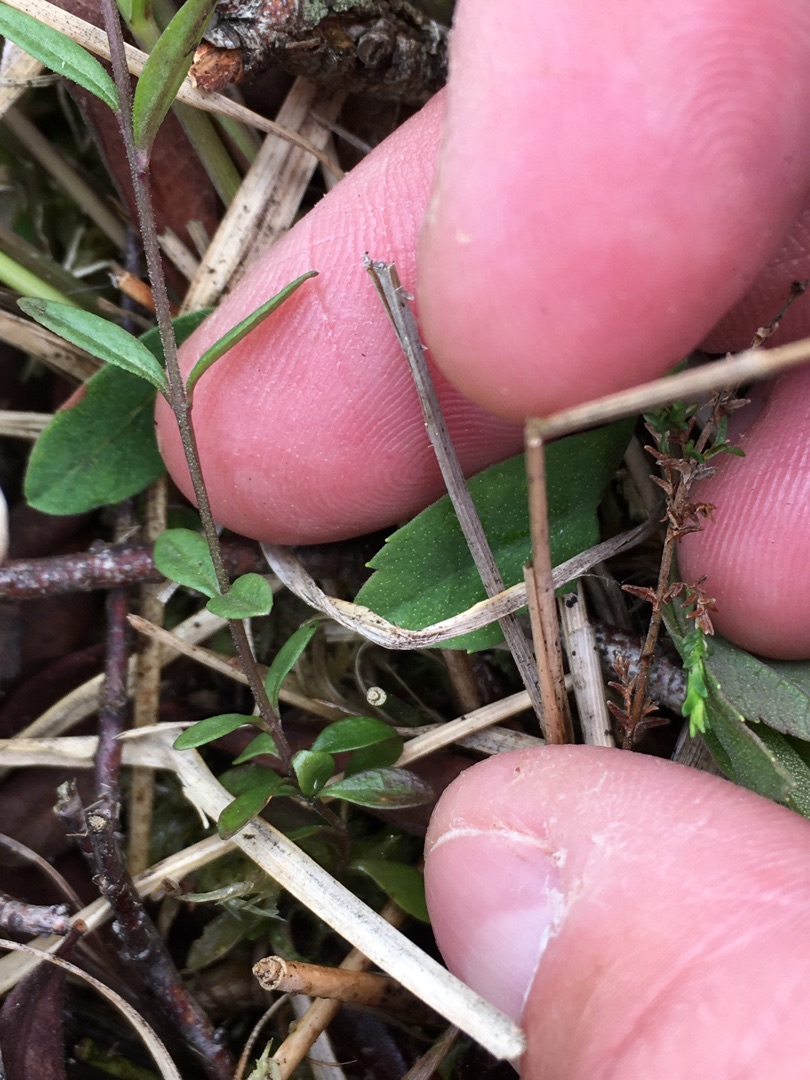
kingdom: Plantae
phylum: Tracheophyta
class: Magnoliopsida
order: Fabales
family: Polygalaceae
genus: Polygala
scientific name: Polygala serpyllifolia
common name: Spæd mælkeurt
